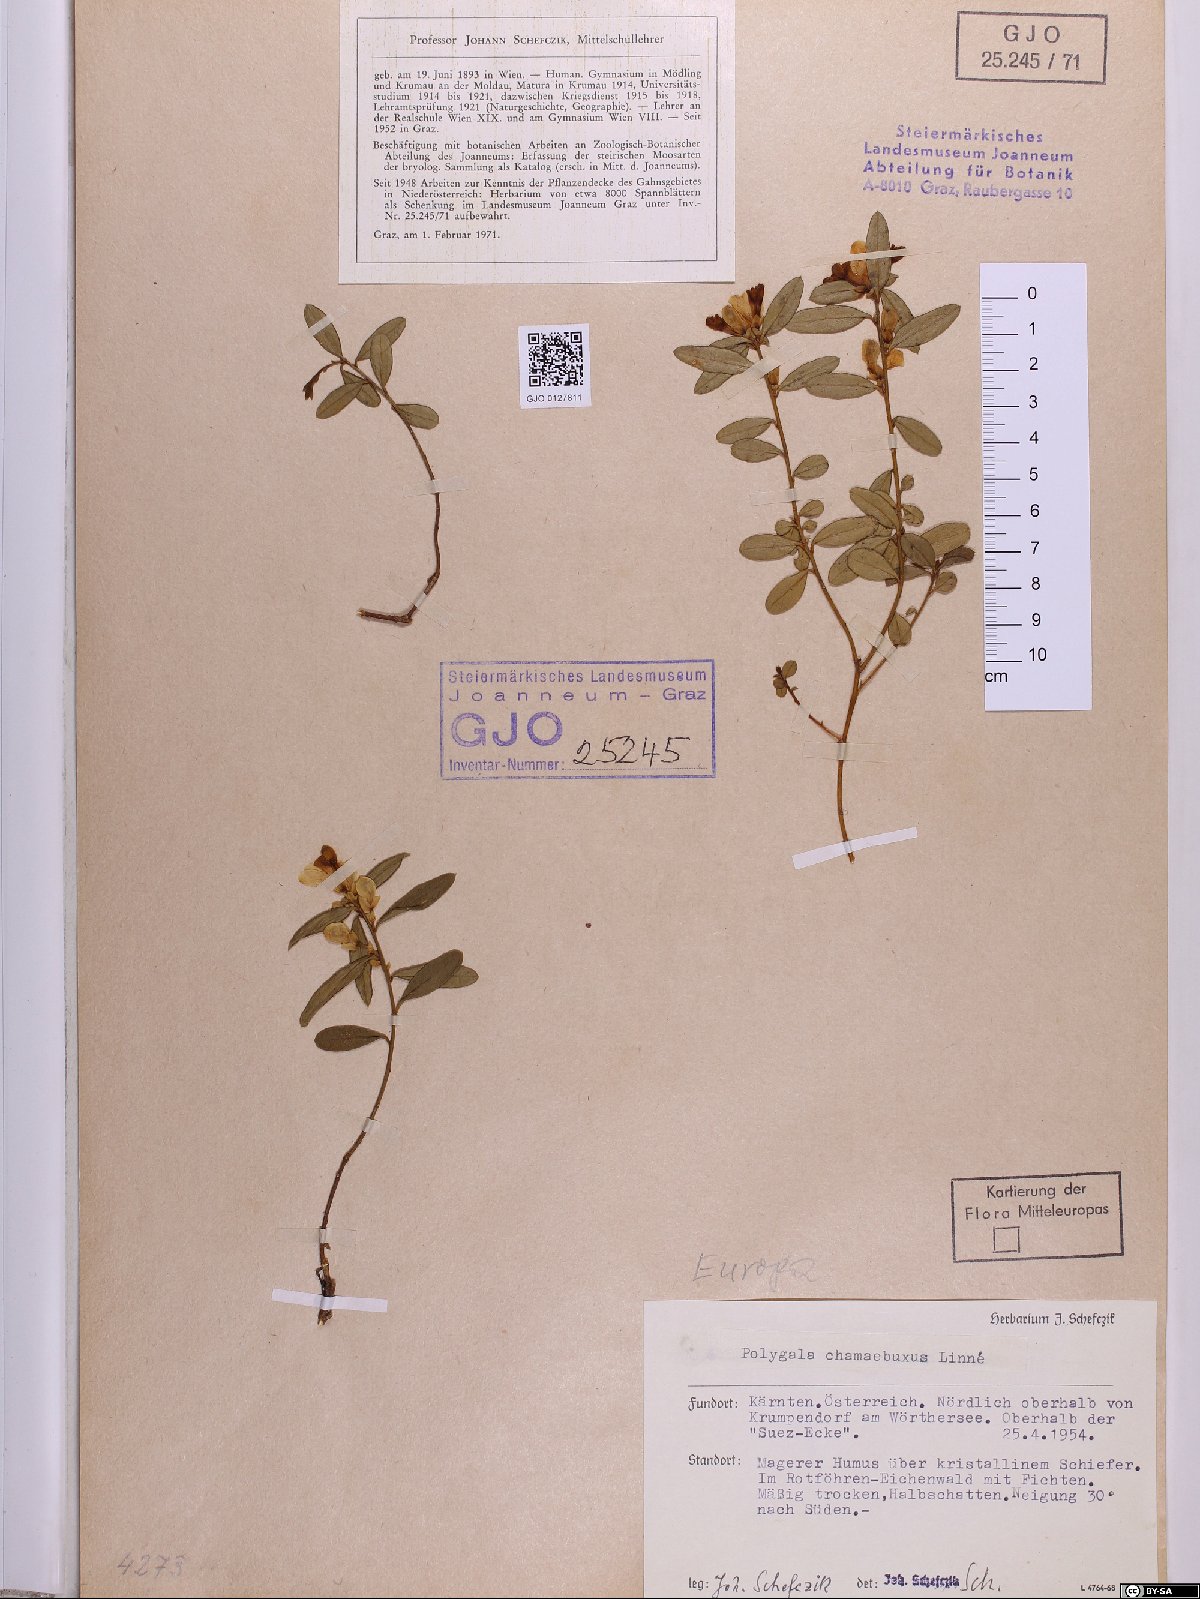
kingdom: Plantae
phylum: Tracheophyta
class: Magnoliopsida
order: Fabales
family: Polygalaceae
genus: Polygaloides
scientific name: Polygaloides chamaebuxus
